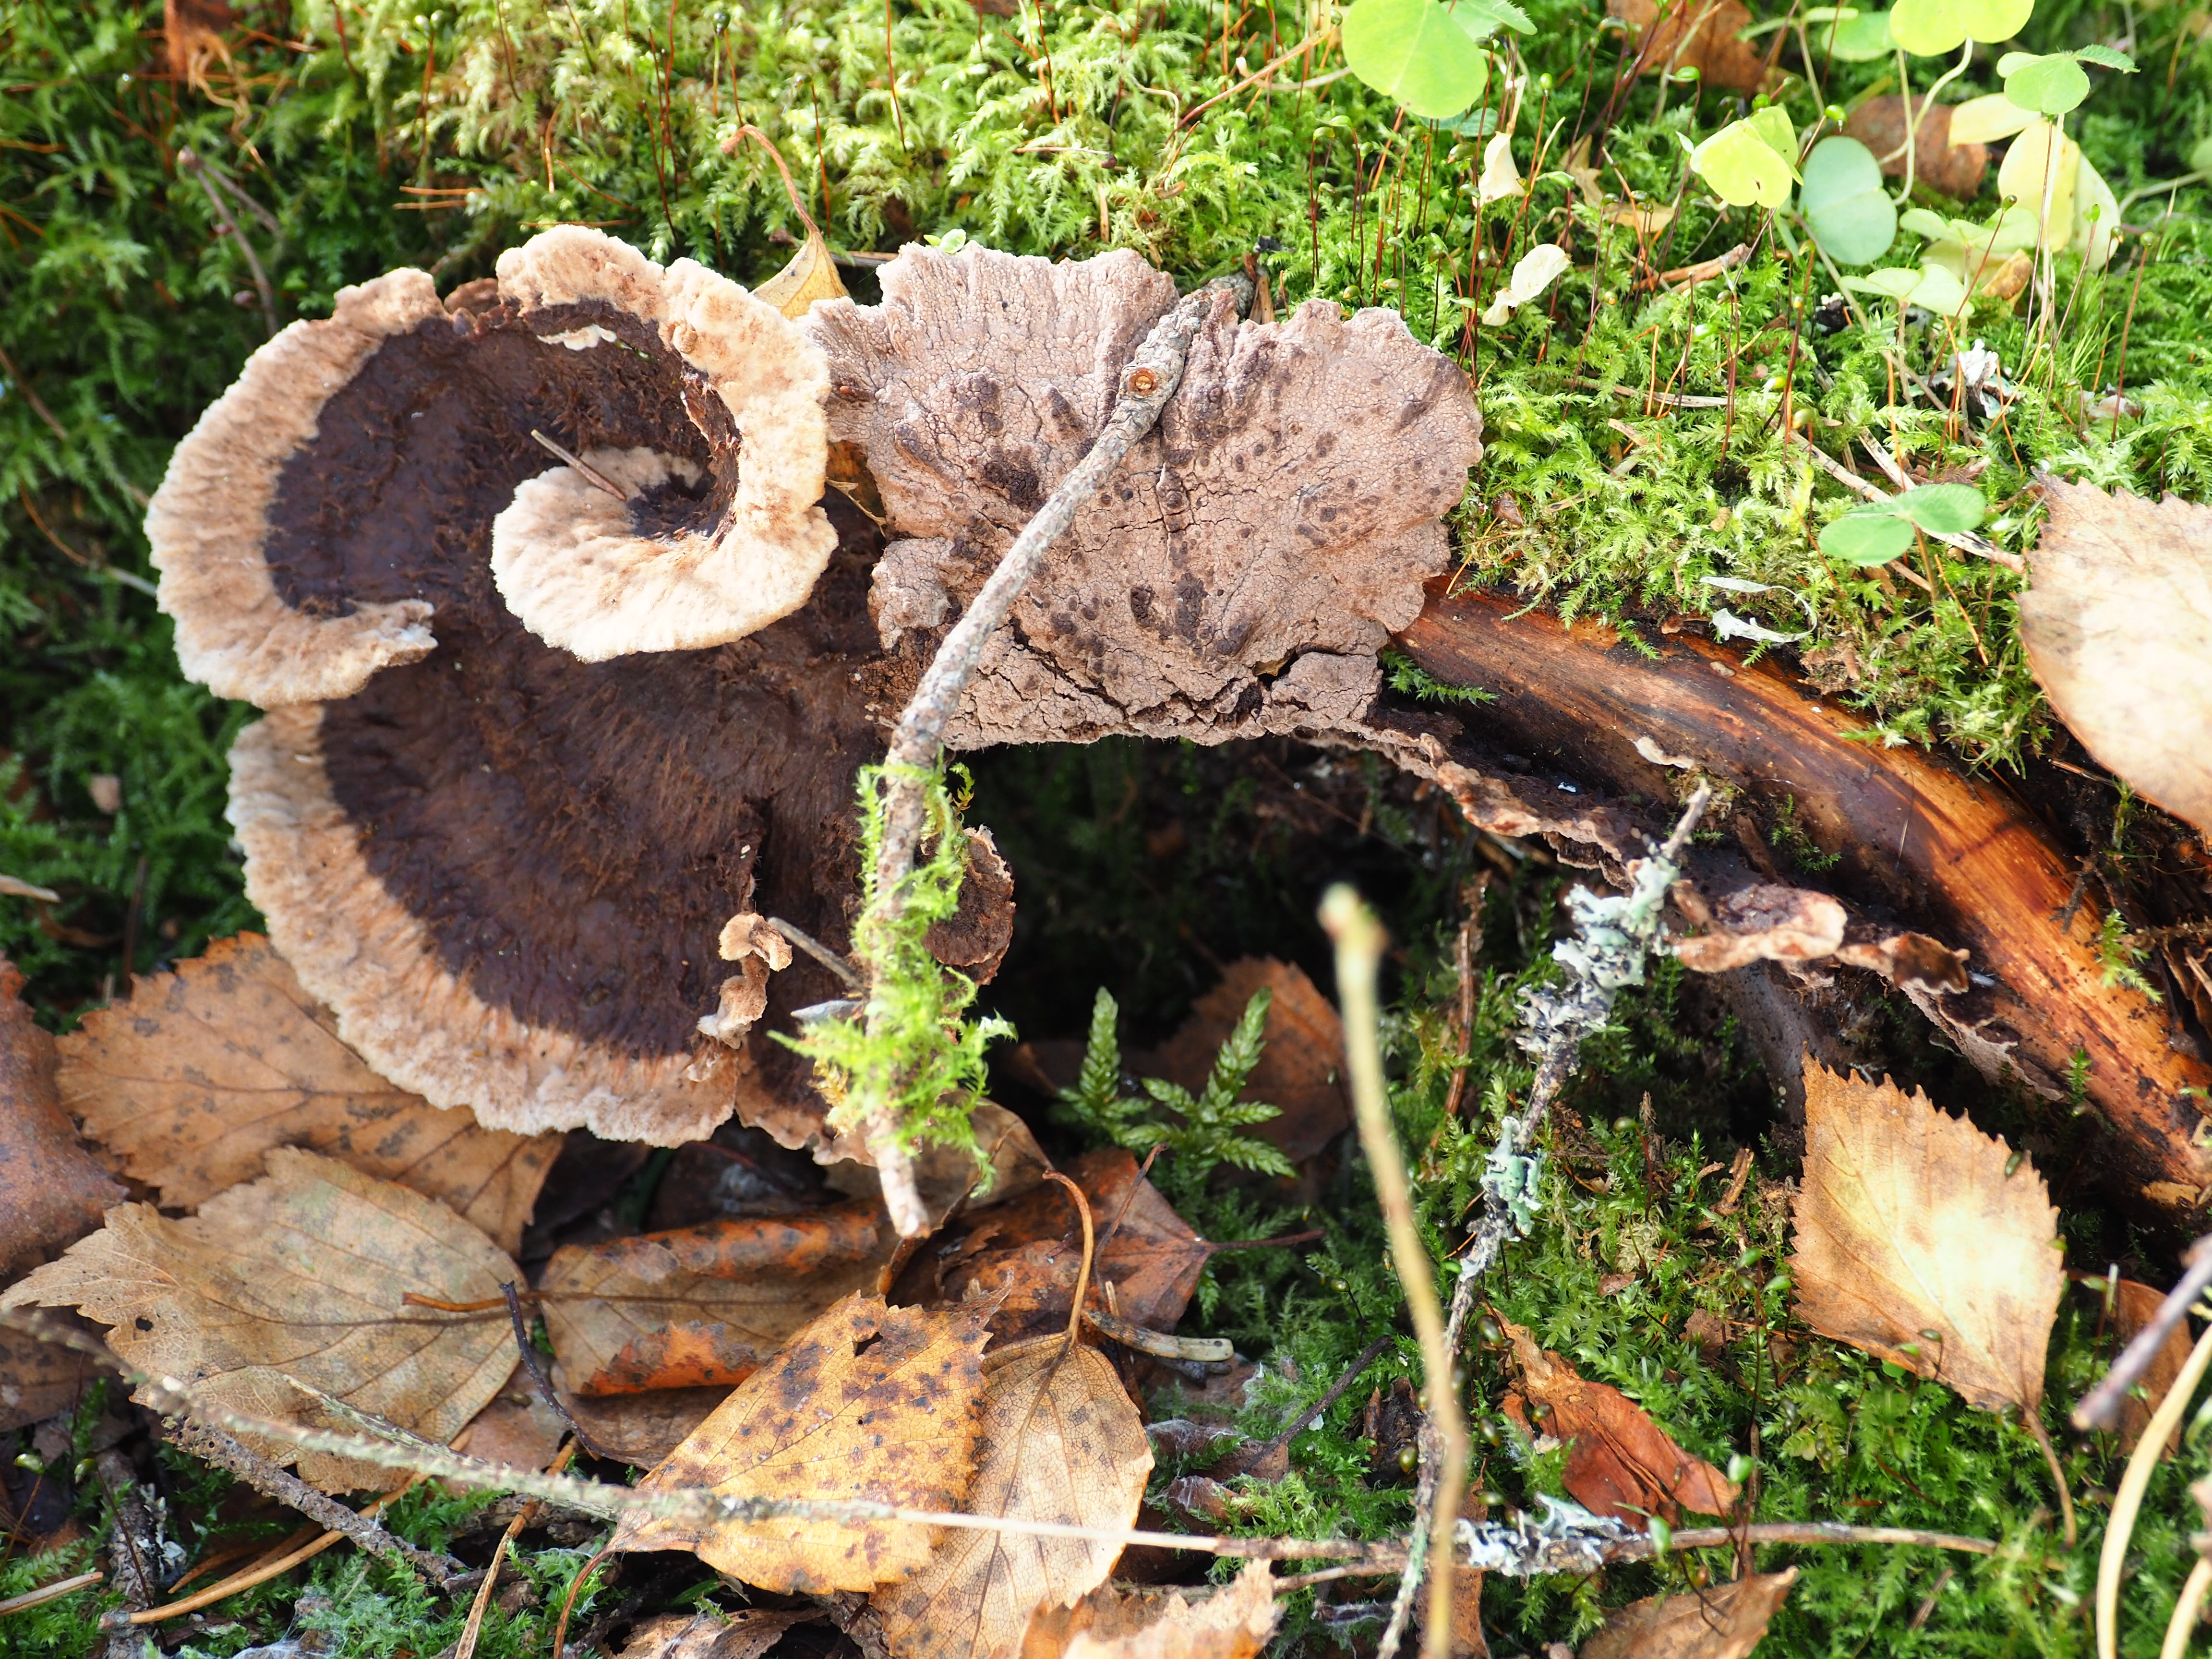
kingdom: Fungi
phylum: Basidiomycota
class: Agaricomycetes
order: Thelephorales
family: Thelephoraceae
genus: Thelephora
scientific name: Thelephora terrestris
